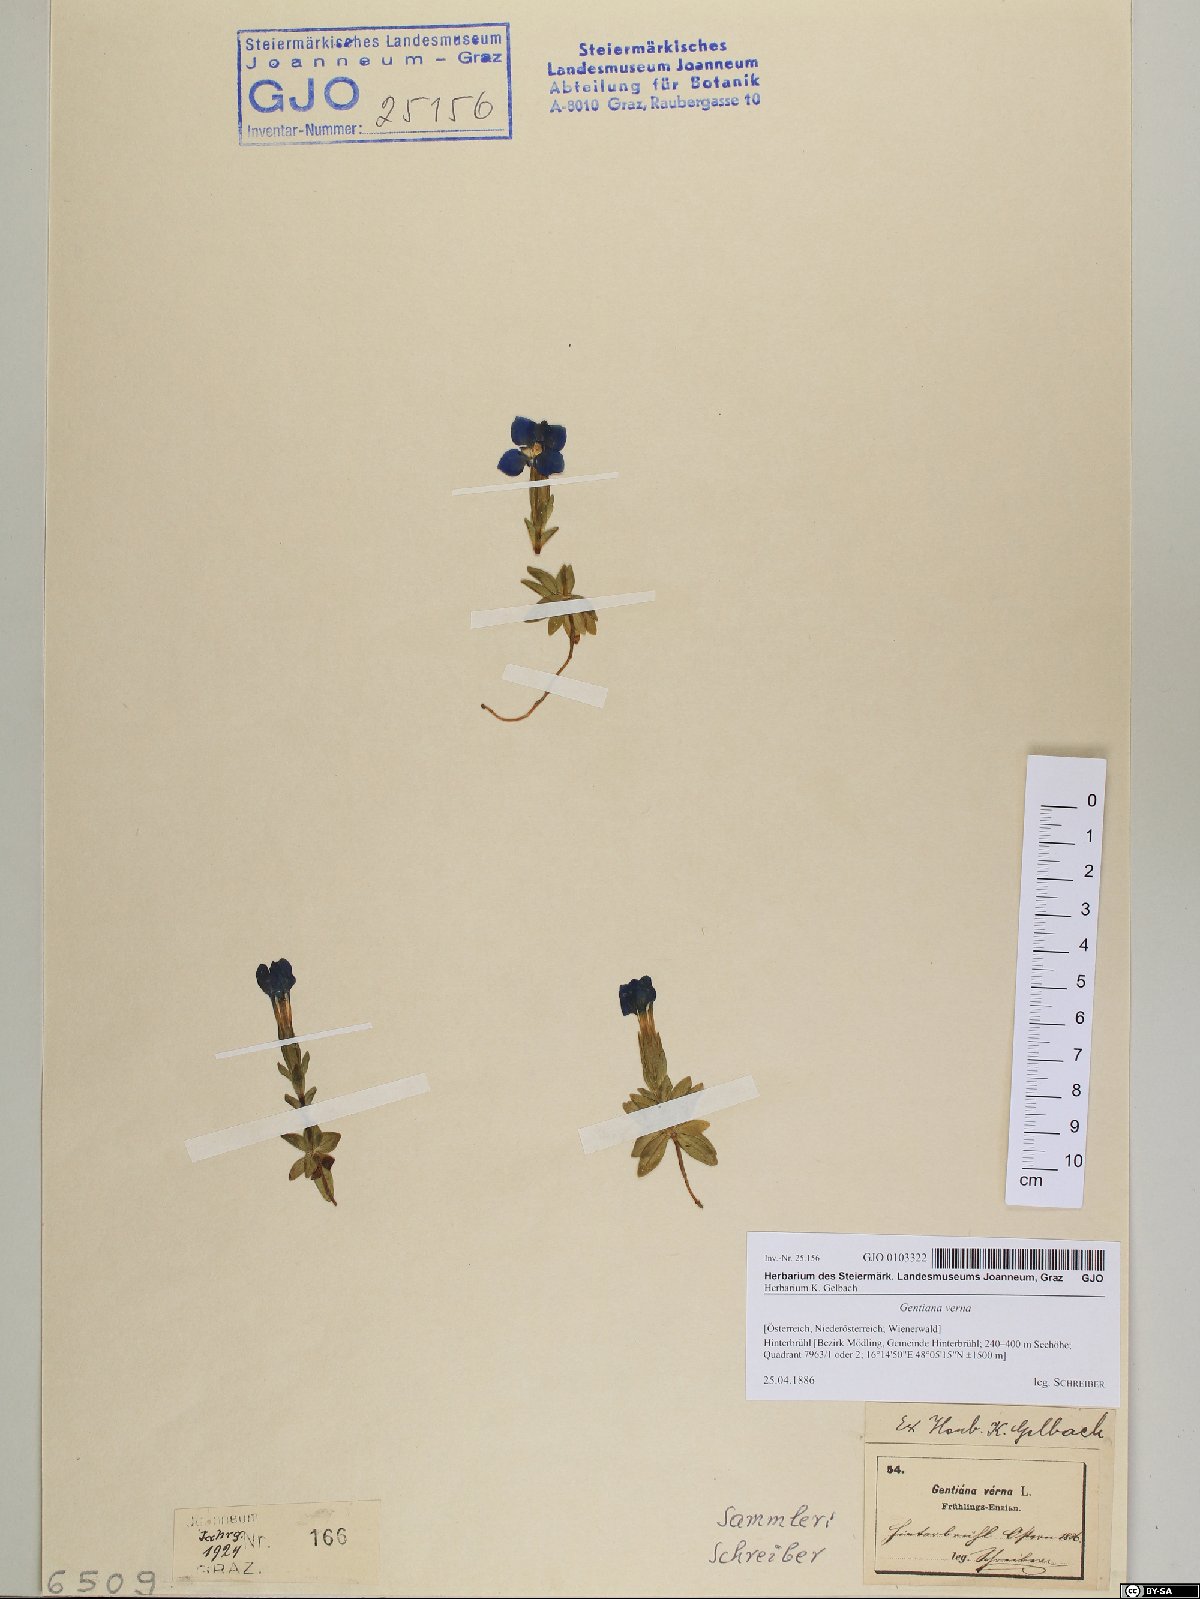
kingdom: Plantae
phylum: Tracheophyta
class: Magnoliopsida
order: Gentianales
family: Gentianaceae
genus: Gentiana
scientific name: Gentiana verna
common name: Spring gentian
